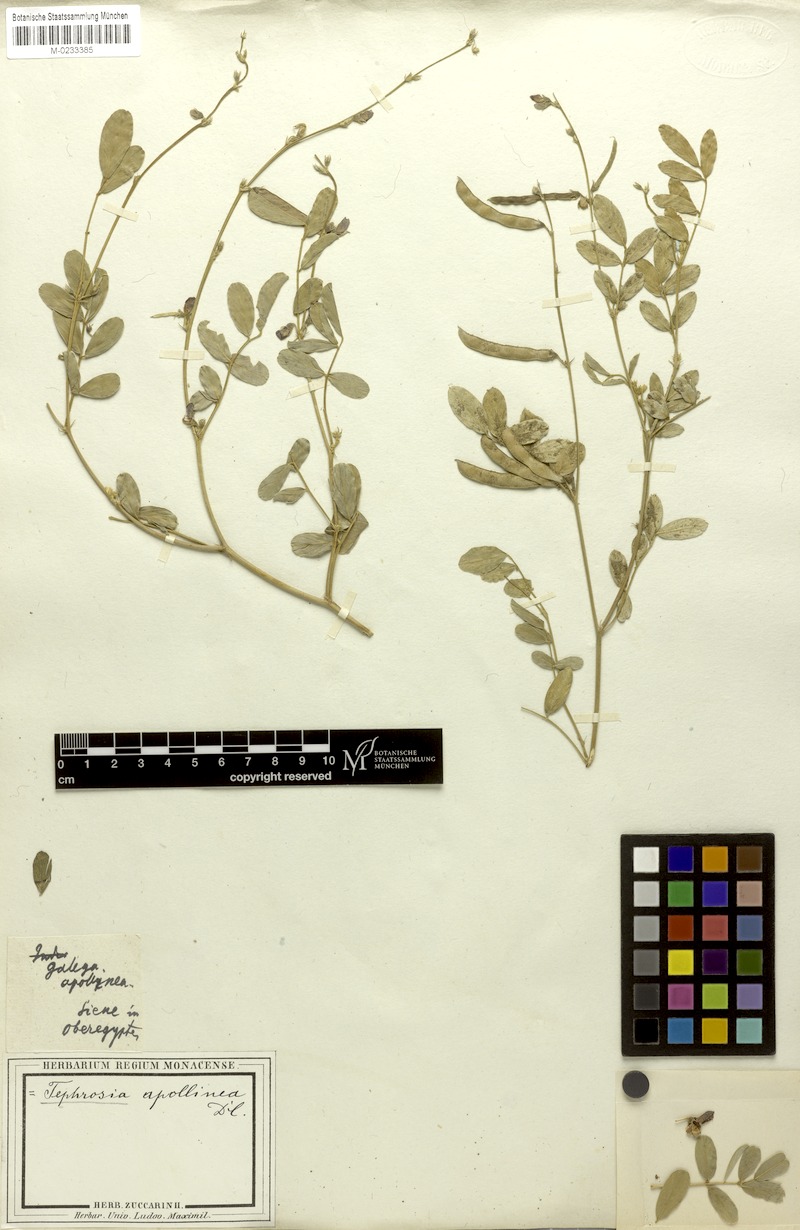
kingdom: Plantae
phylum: Tracheophyta
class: Magnoliopsida
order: Fabales
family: Fabaceae
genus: Tephrosia
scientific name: Tephrosia purpurea
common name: Fishpoison
